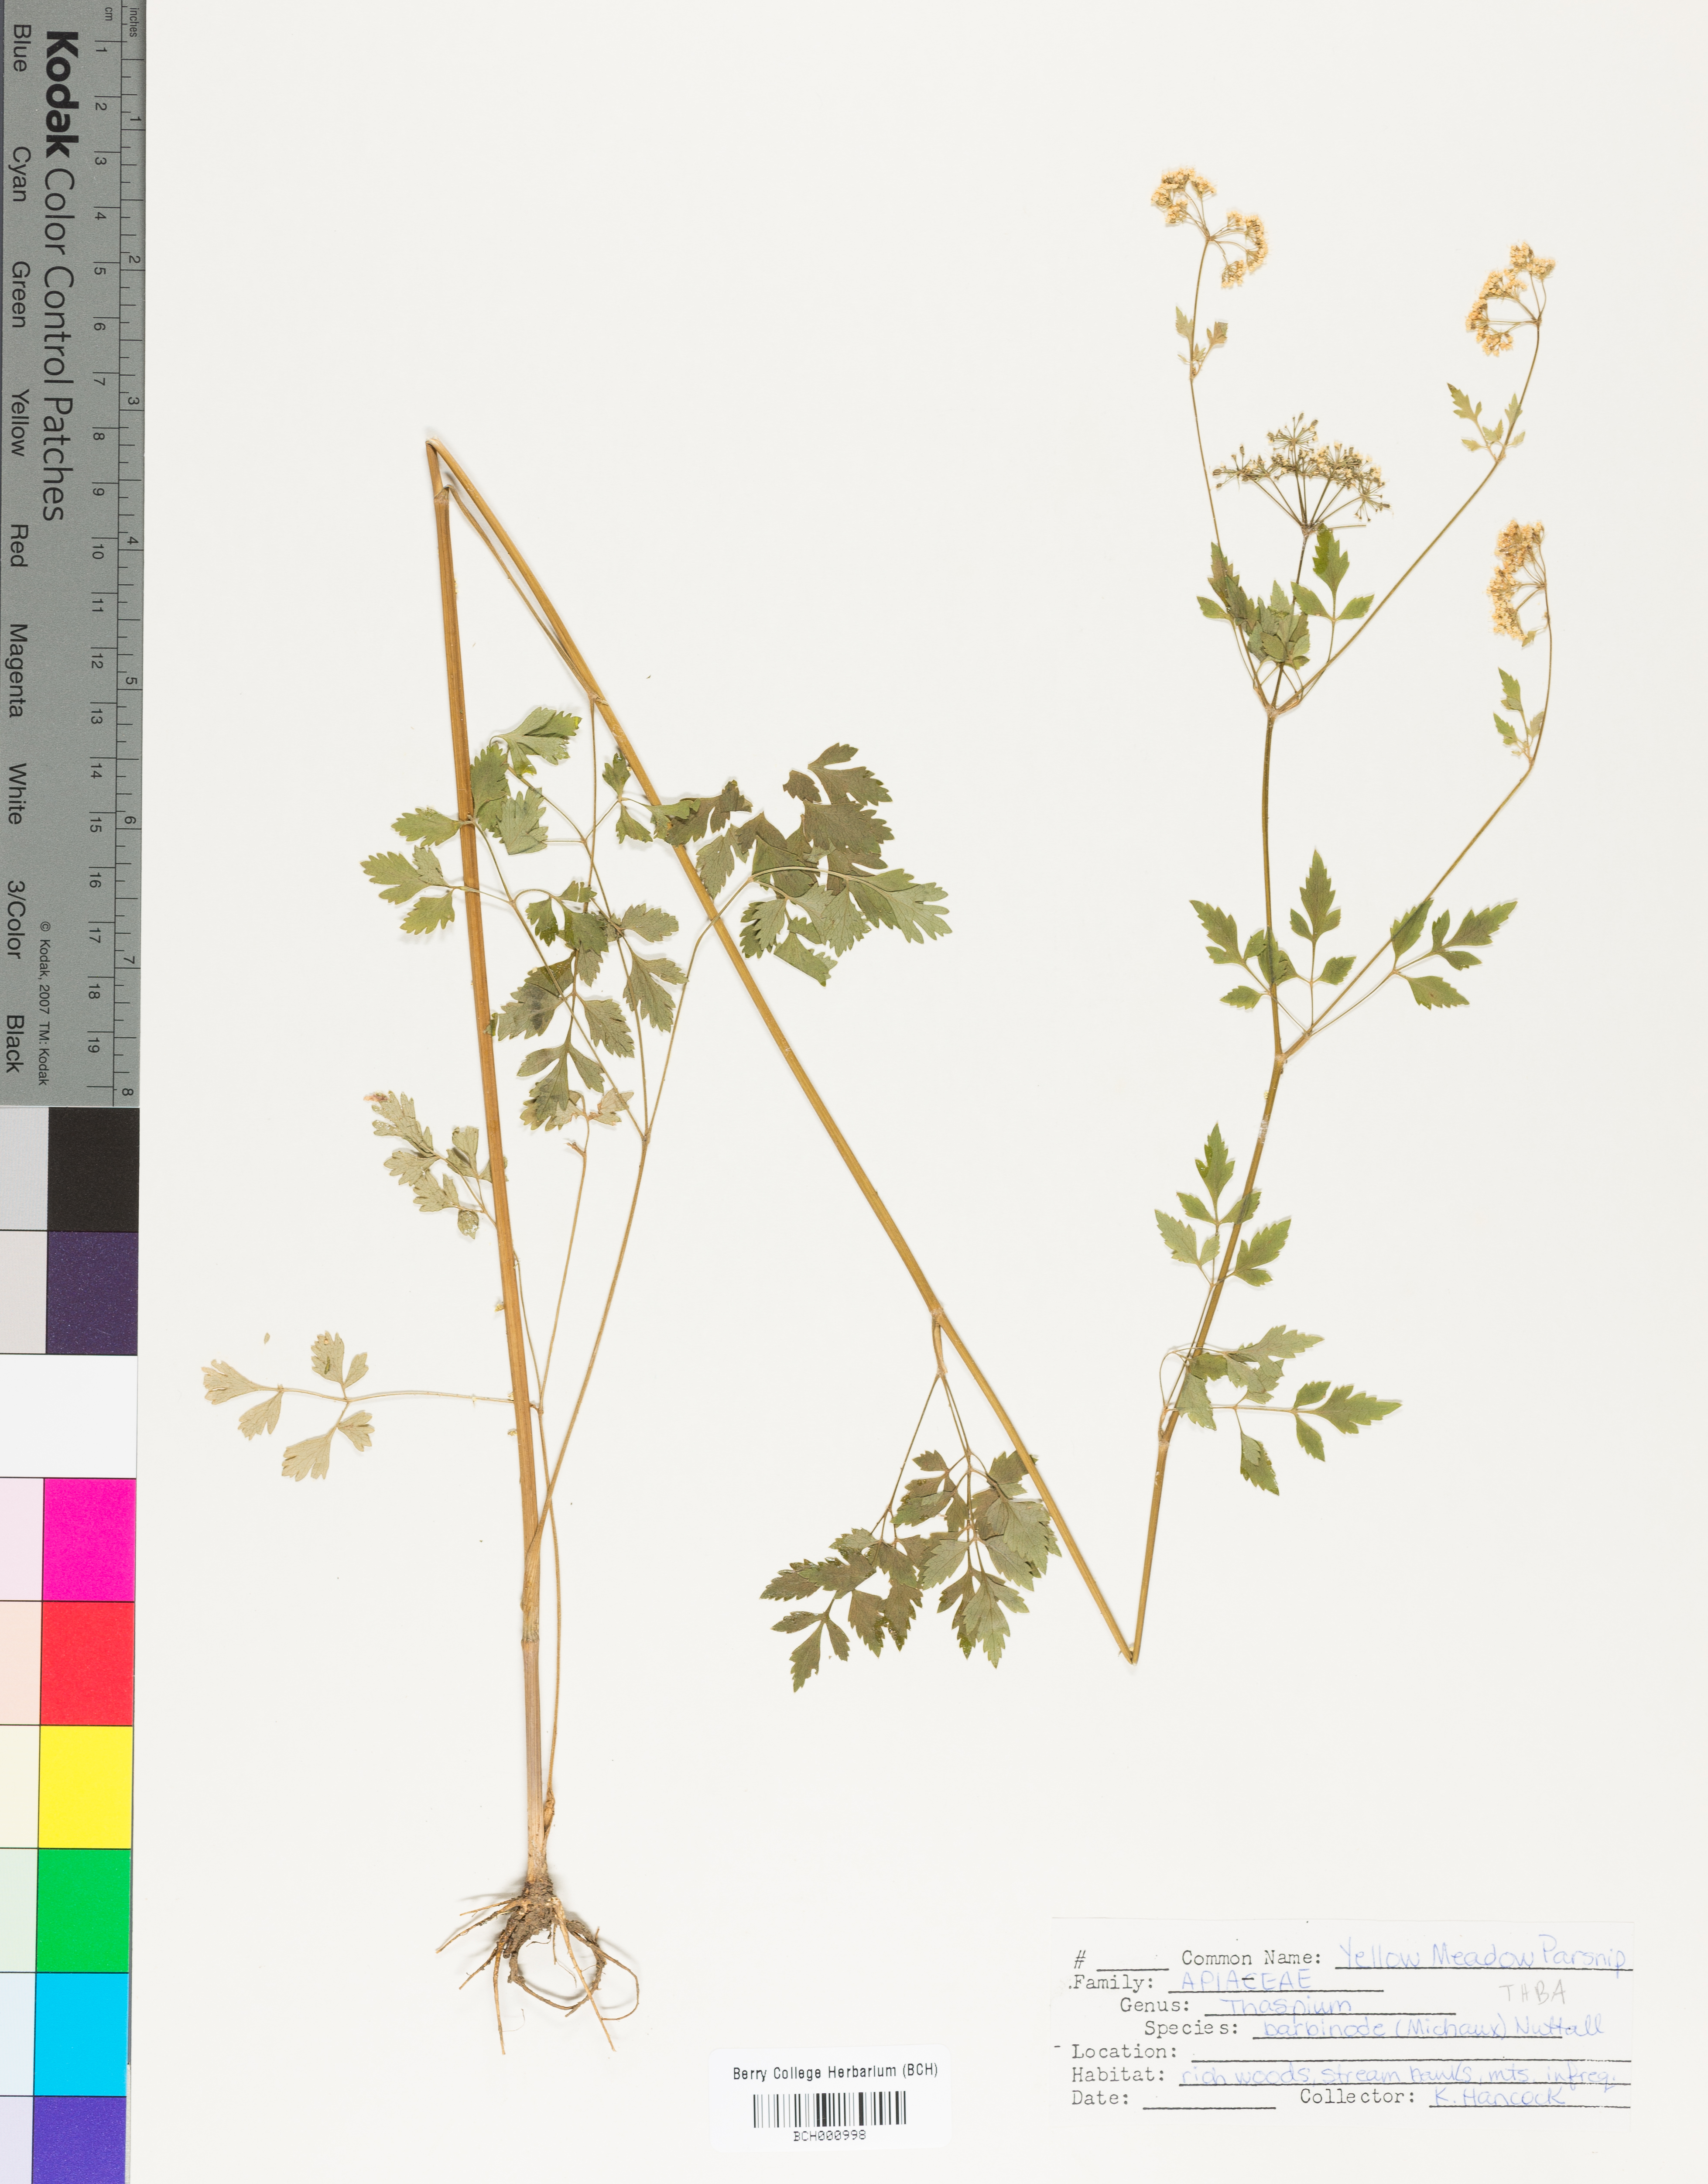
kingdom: Plantae
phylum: Tracheophyta
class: Magnoliopsida
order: Apiales
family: Apiaceae
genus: Thaspium
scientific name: Thaspium barbinode
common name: Bearded meadow-parsnip
